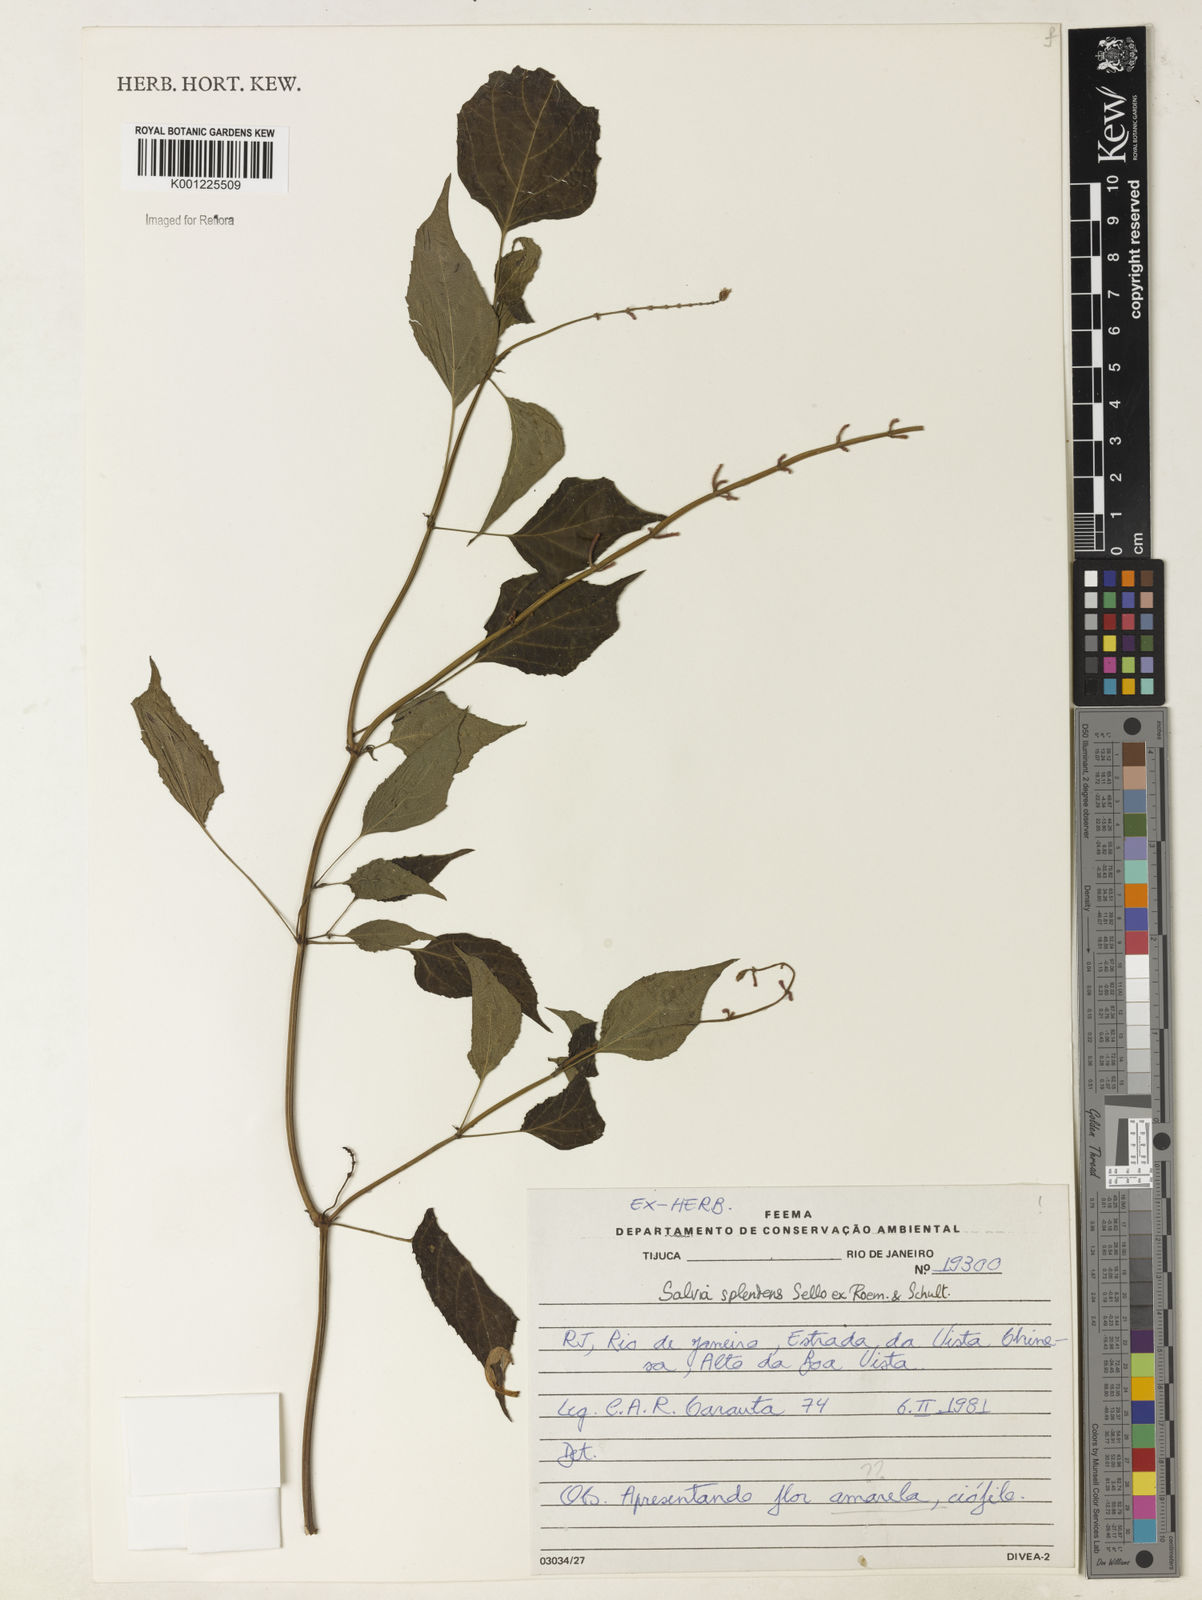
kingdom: Plantae
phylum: Tracheophyta
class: Magnoliopsida
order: Lamiales
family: Lamiaceae
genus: Salvia
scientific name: Salvia
